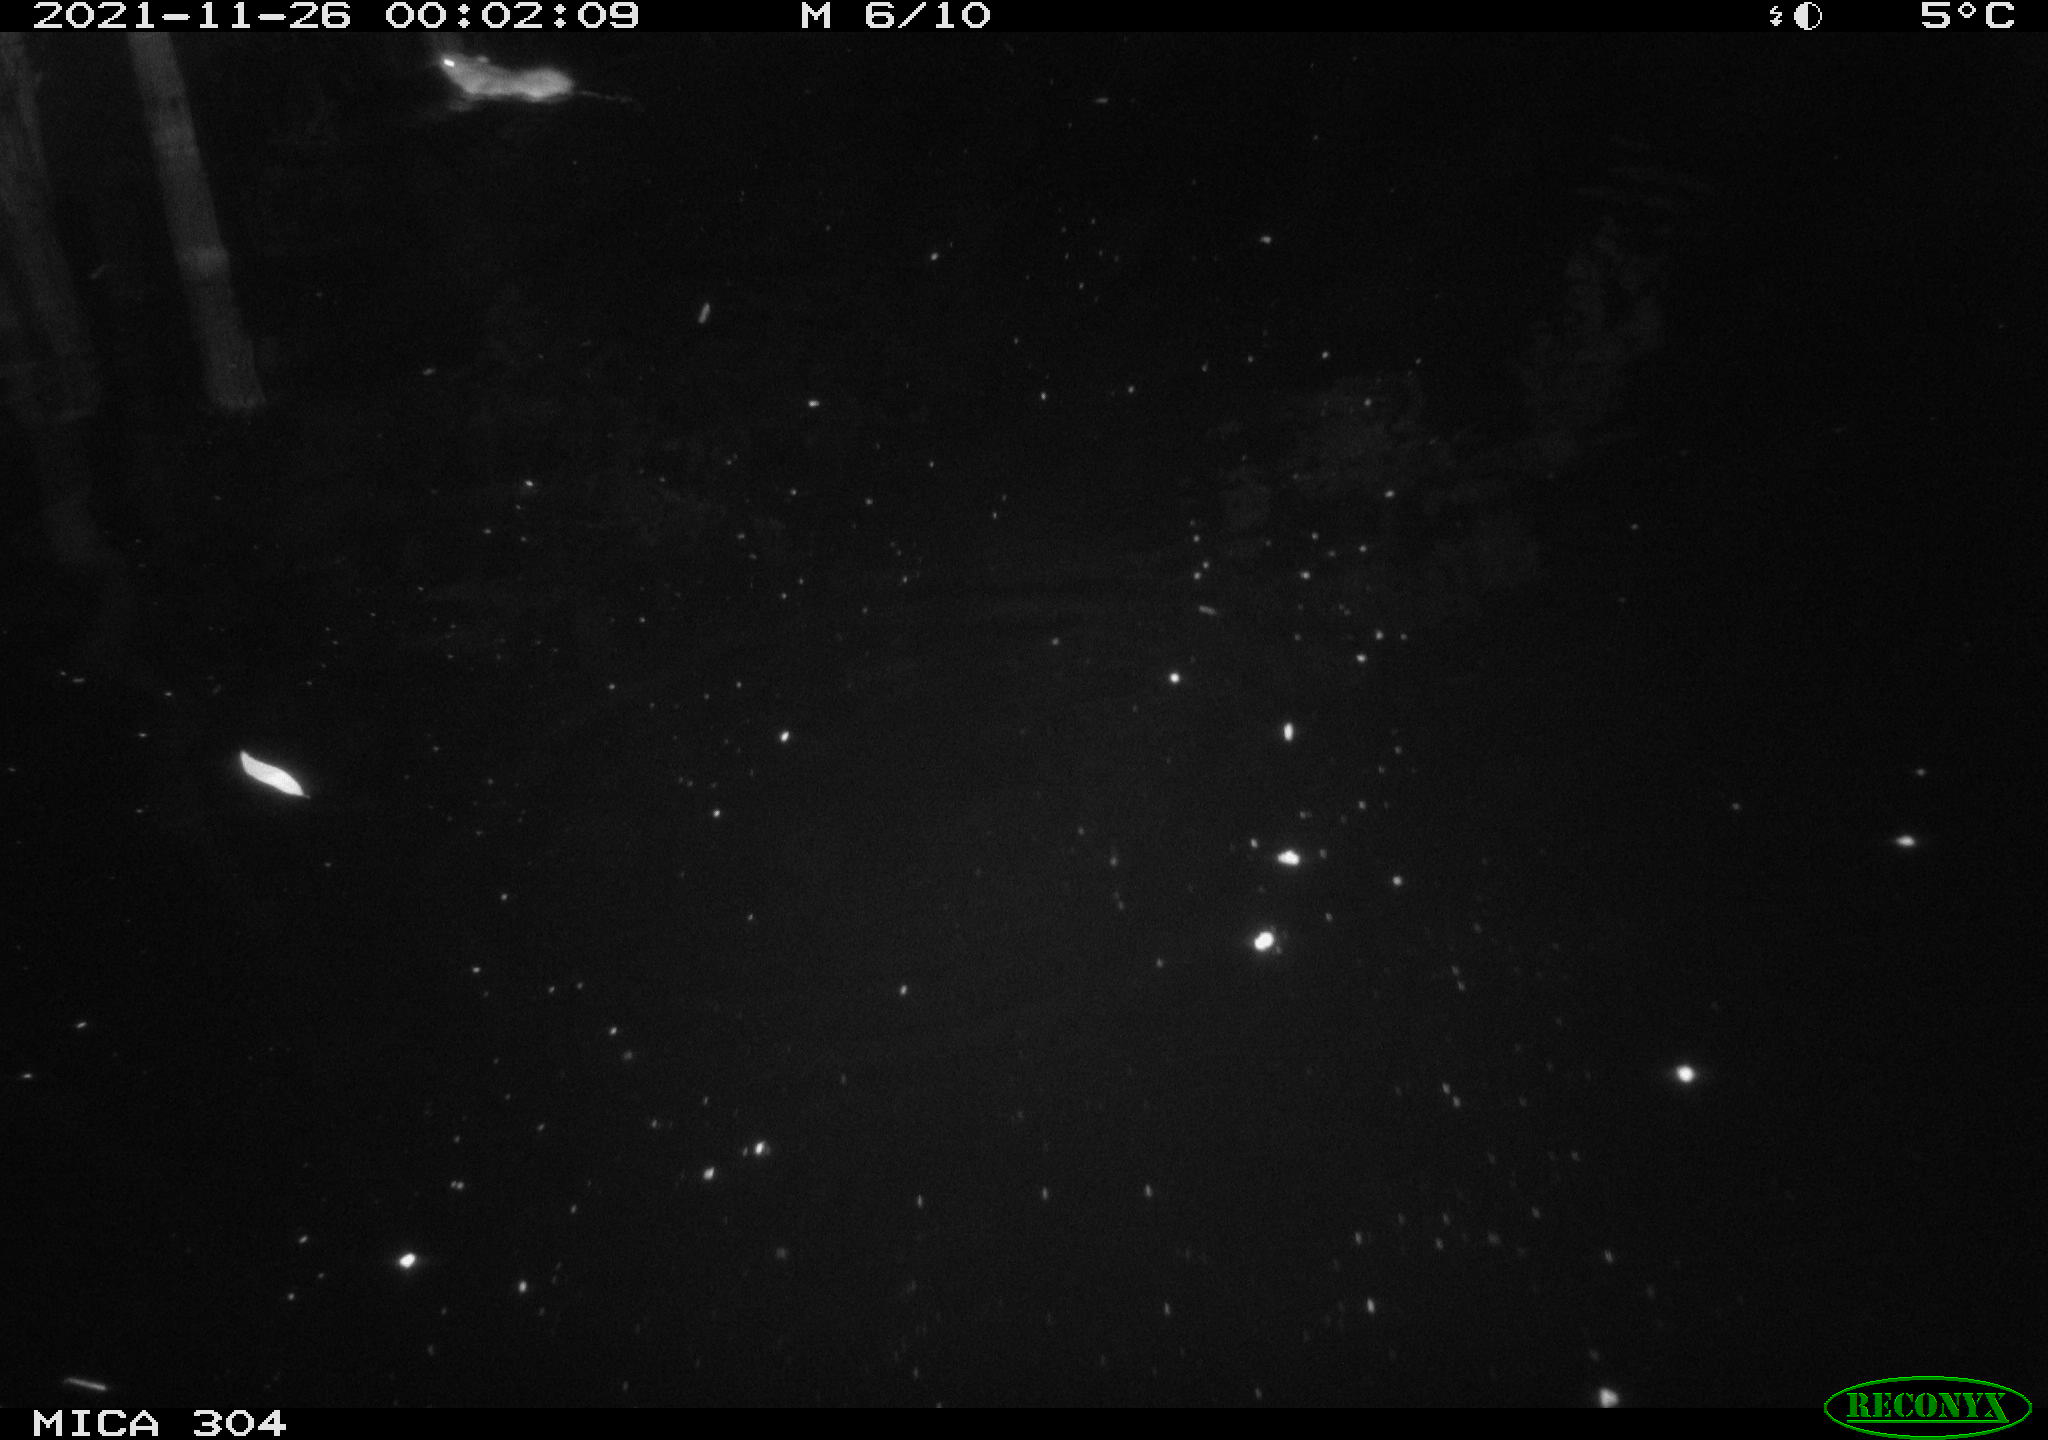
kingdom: Animalia
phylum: Chordata
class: Mammalia
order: Rodentia
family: Muridae
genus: Rattus
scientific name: Rattus norvegicus
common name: Brown rat
